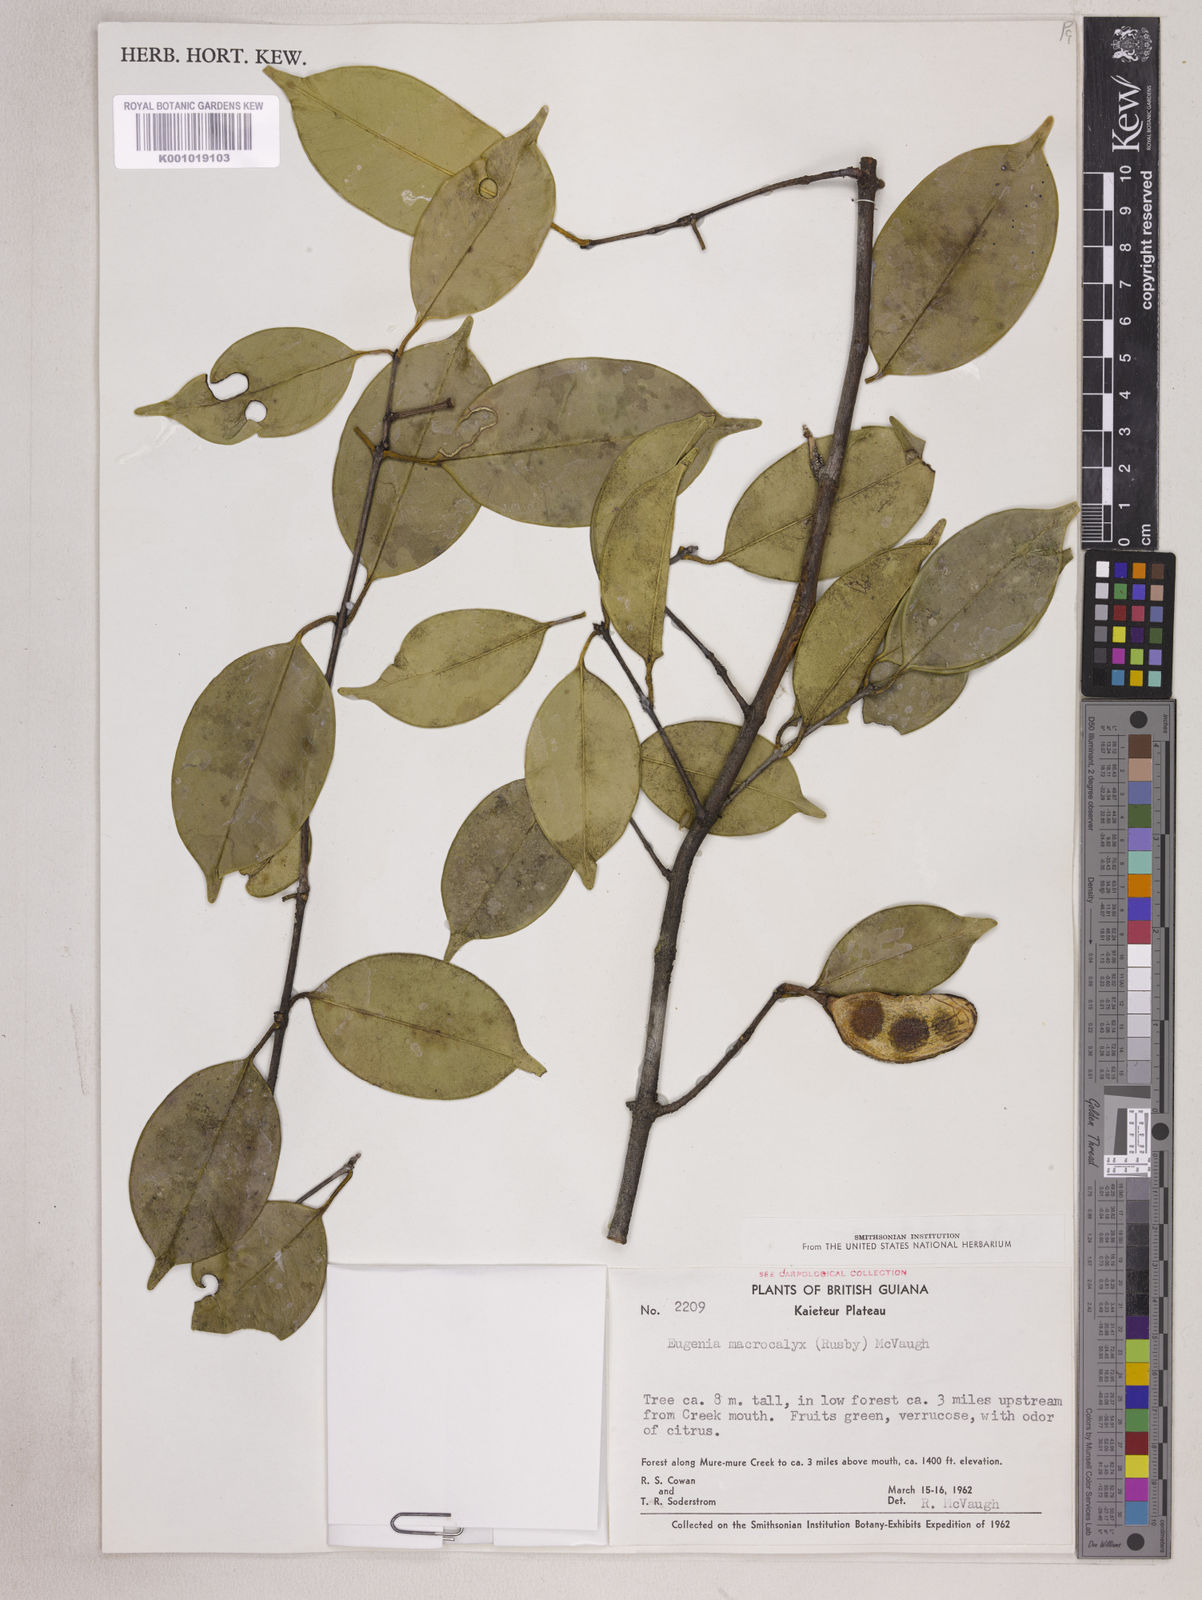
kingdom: Plantae
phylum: Tracheophyta
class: Magnoliopsida
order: Myrtales
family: Myrtaceae
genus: Eugenia
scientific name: Eugenia wentii
